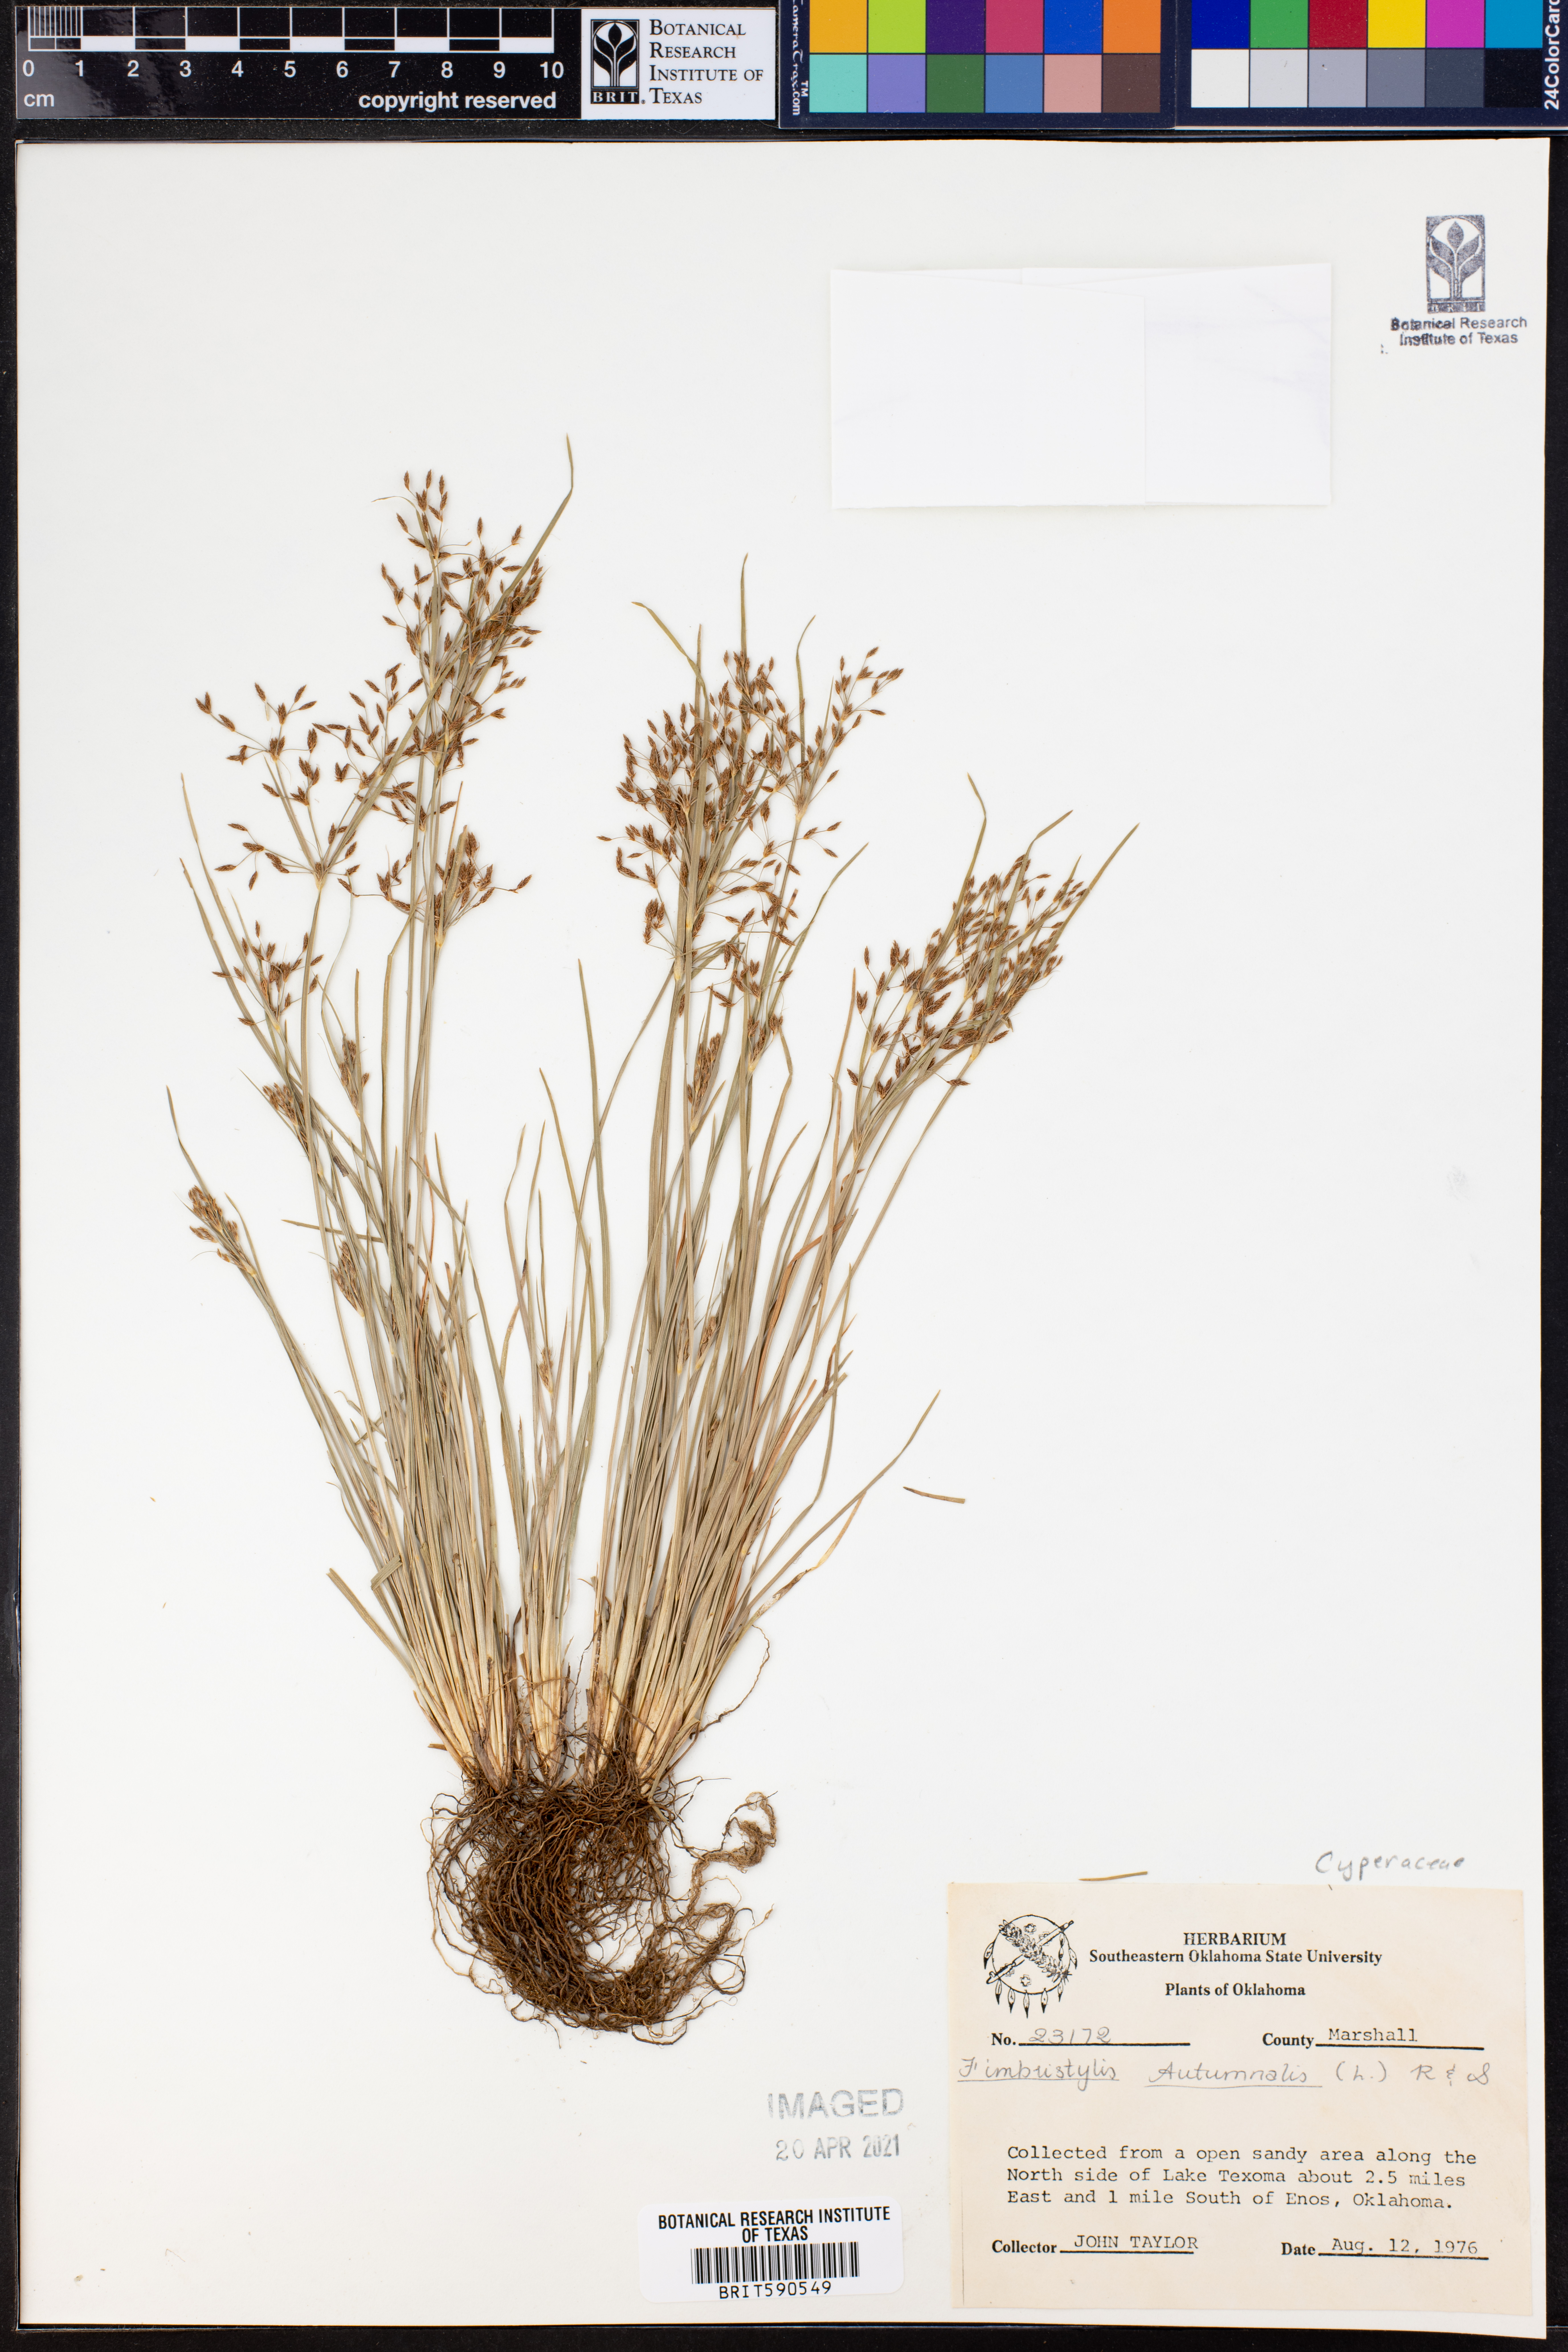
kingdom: Plantae
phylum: Tracheophyta
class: Liliopsida
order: Poales
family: Cyperaceae
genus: Fimbristylis
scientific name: Fimbristylis autumnalis
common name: Slender fimbristylis
